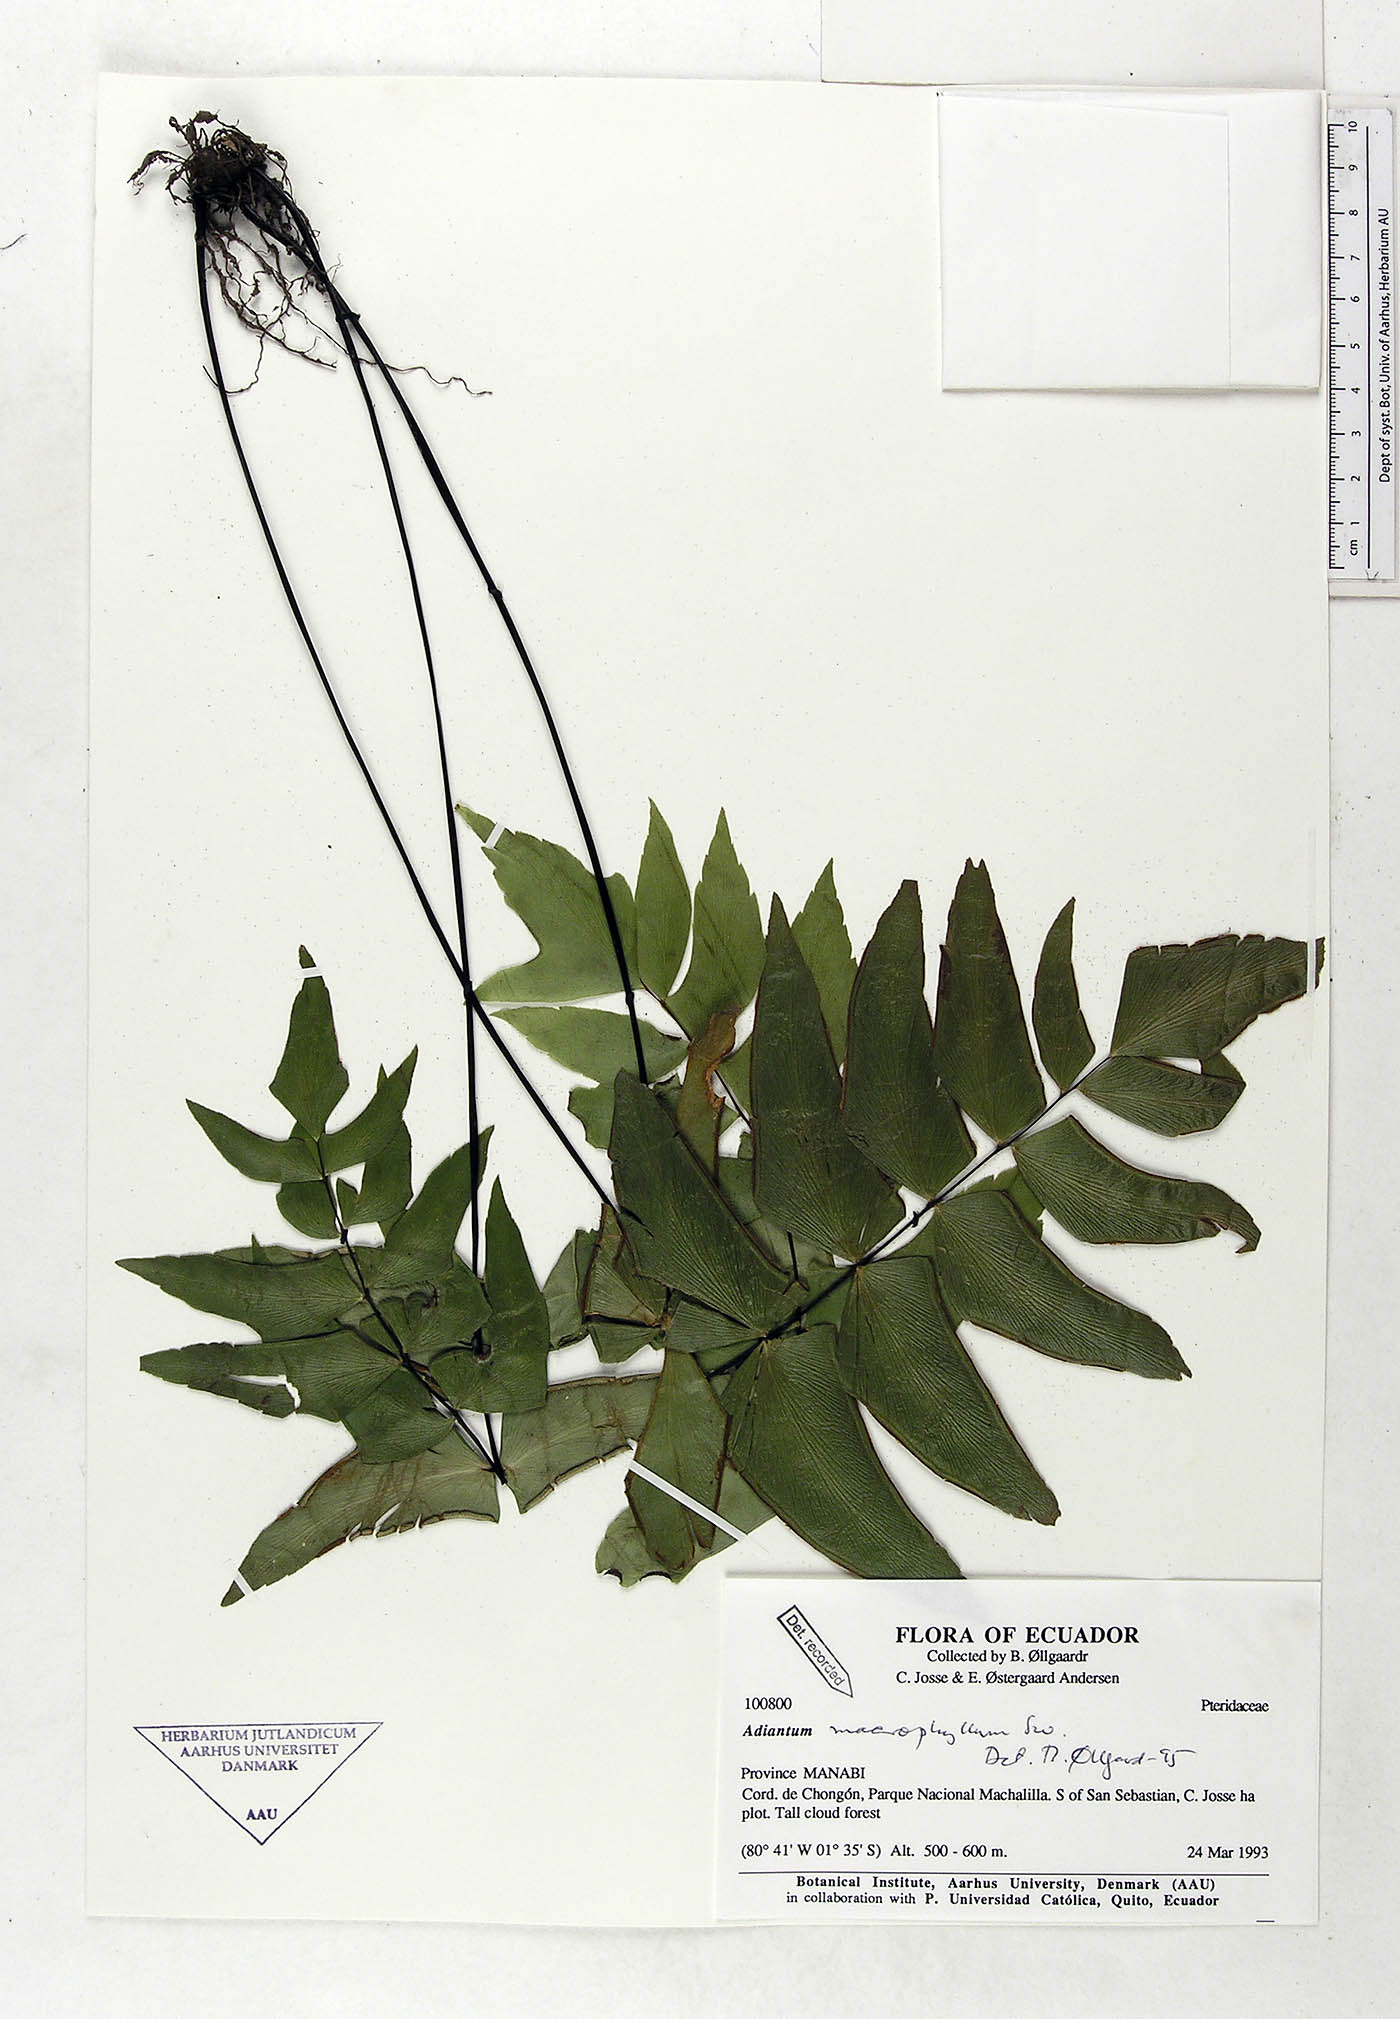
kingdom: Plantae
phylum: Tracheophyta
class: Polypodiopsida
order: Polypodiales
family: Pteridaceae
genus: Adiantum
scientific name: Adiantum macrophyllum
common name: Largeleaf maidenhair
